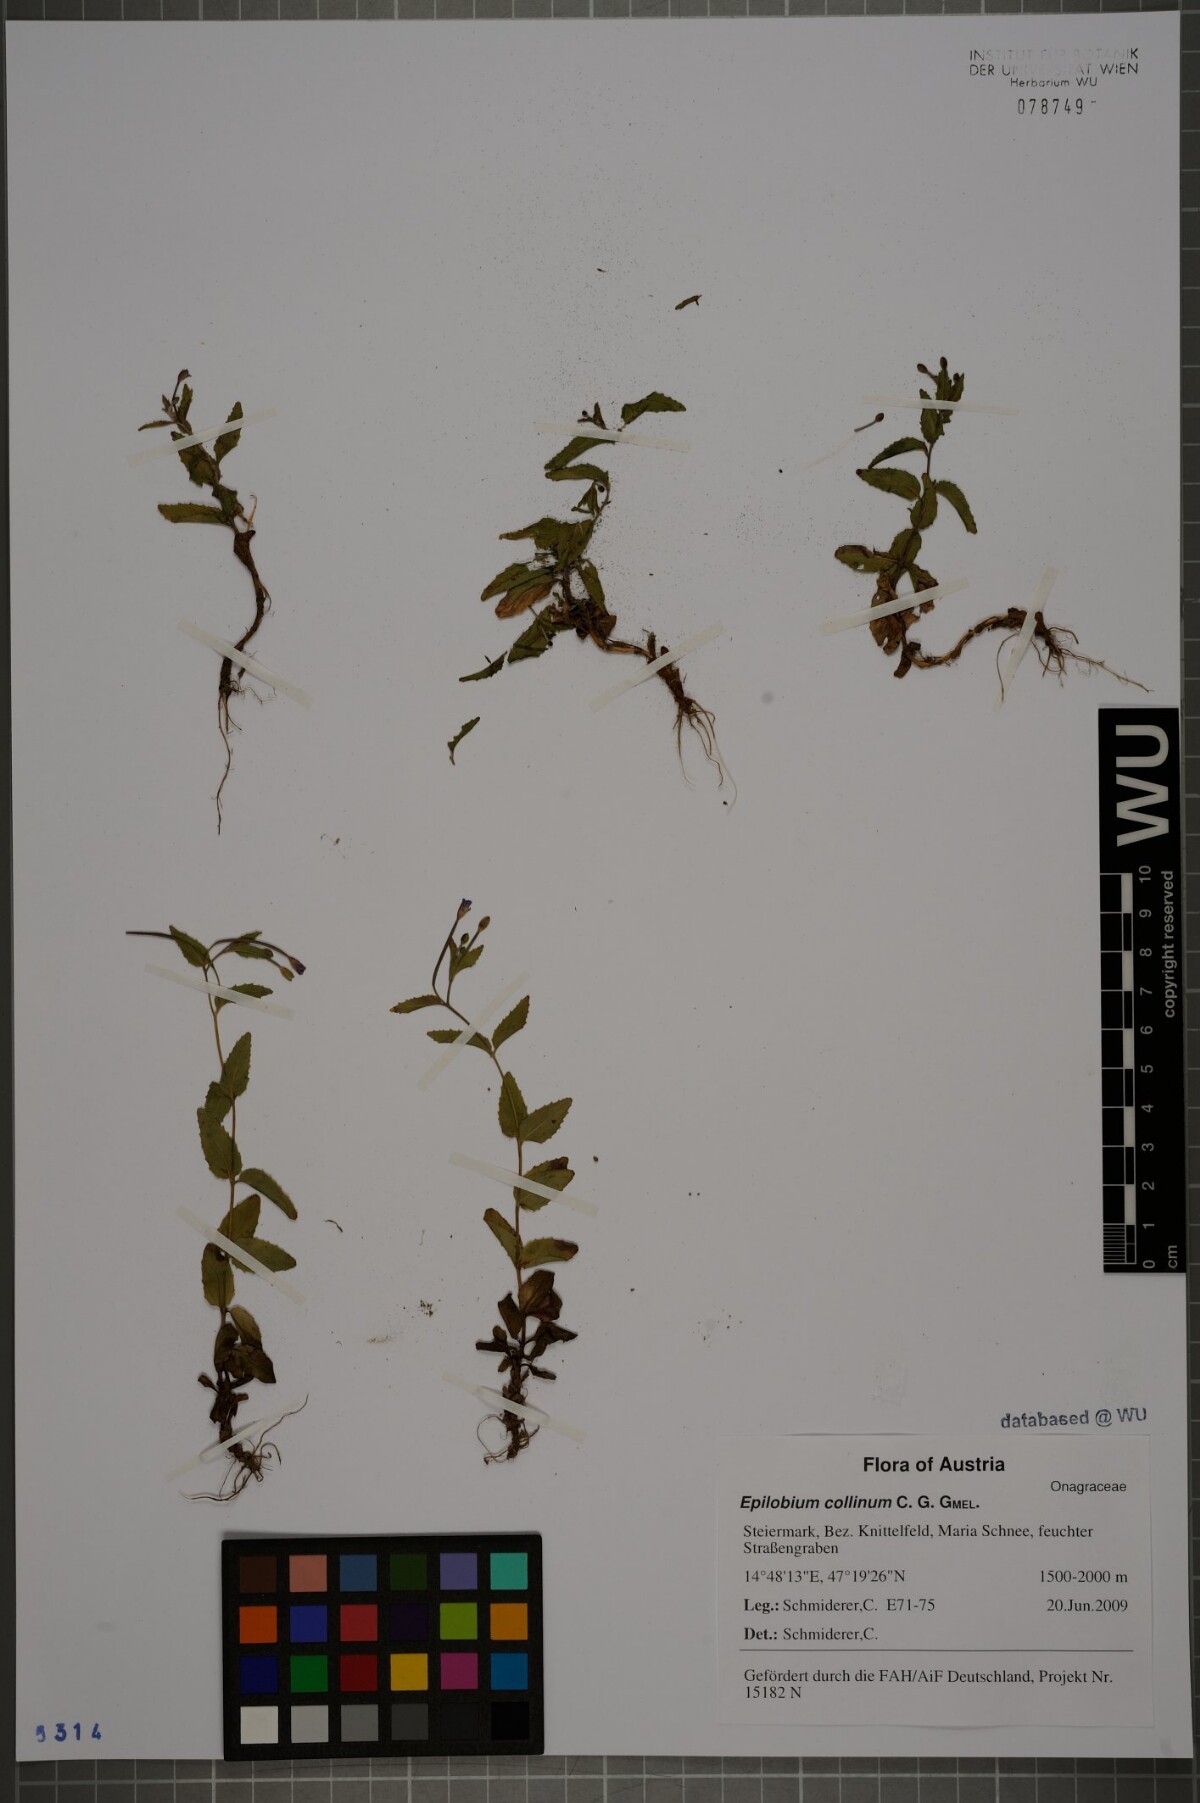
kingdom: Plantae
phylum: Tracheophyta
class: Magnoliopsida
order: Myrtales
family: Onagraceae
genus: Epilobium
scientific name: Epilobium collinum
